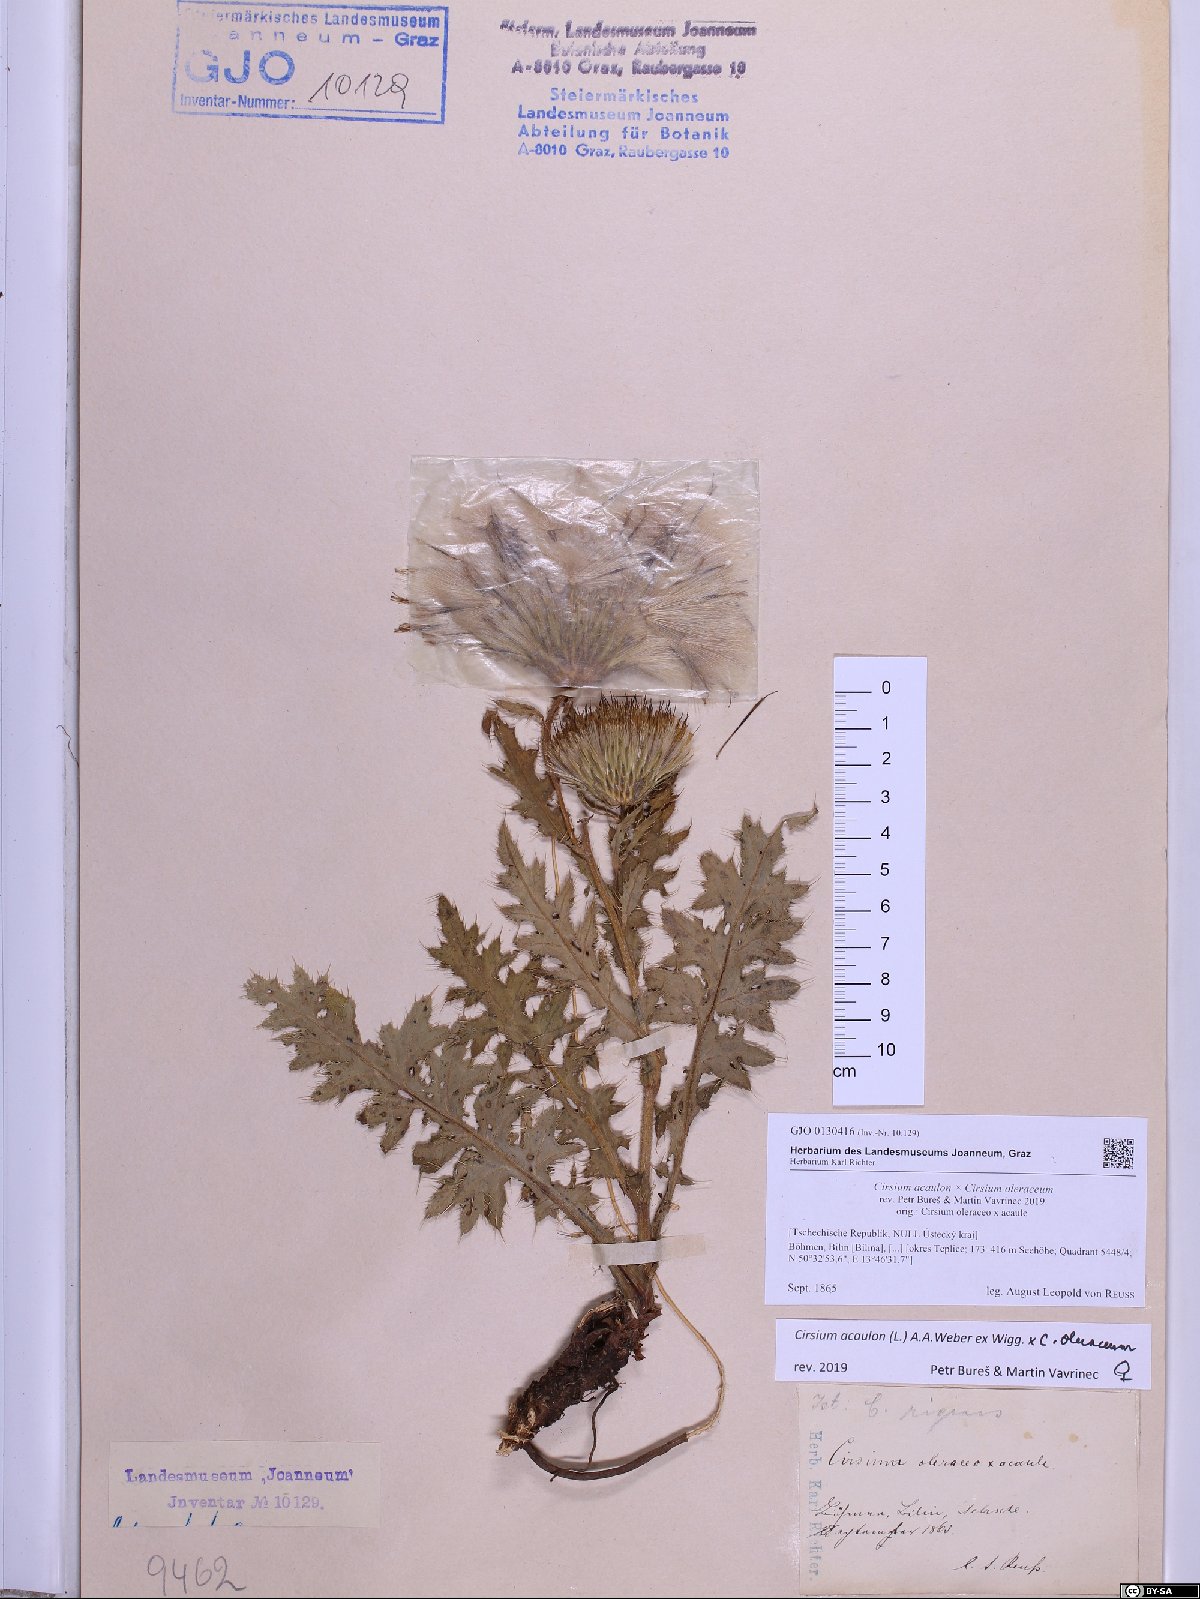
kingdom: Plantae
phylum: Tracheophyta
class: Magnoliopsida
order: Asterales
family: Asteraceae
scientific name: Asteraceae
